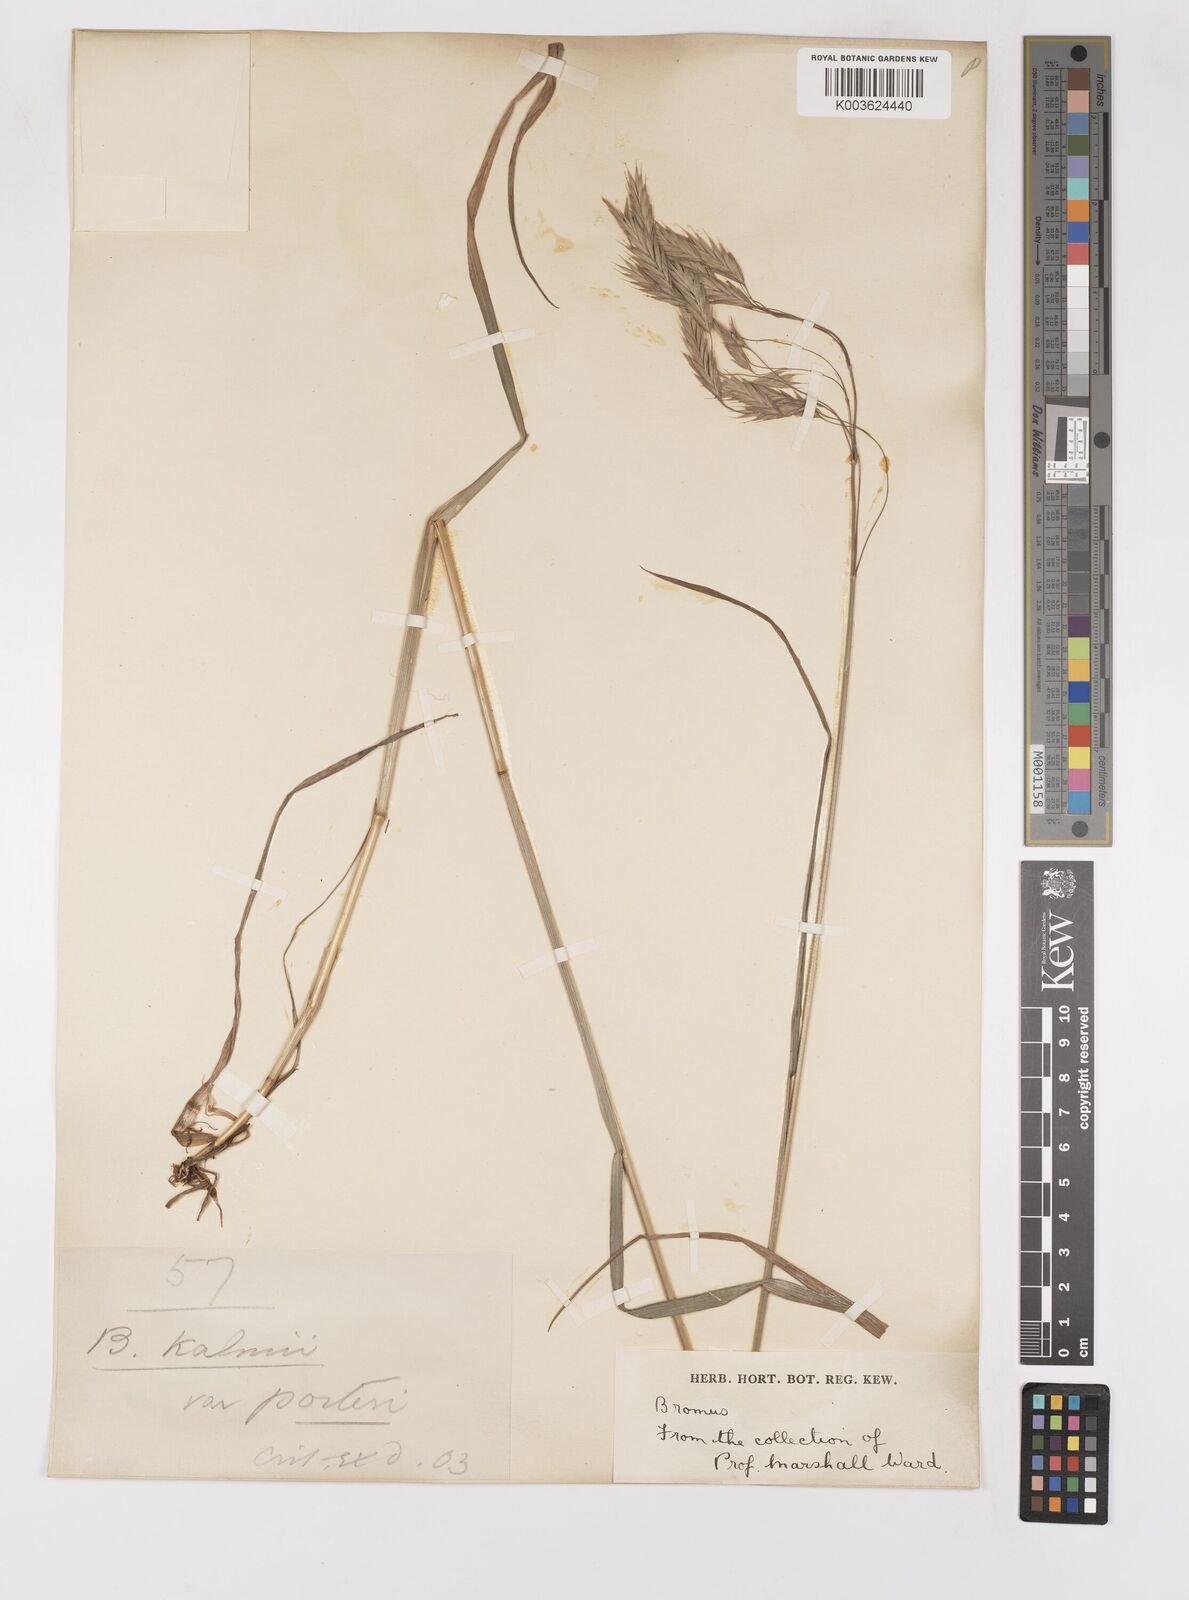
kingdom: Plantae
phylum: Tracheophyta
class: Liliopsida
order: Poales
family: Poaceae
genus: Bromus
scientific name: Bromus
